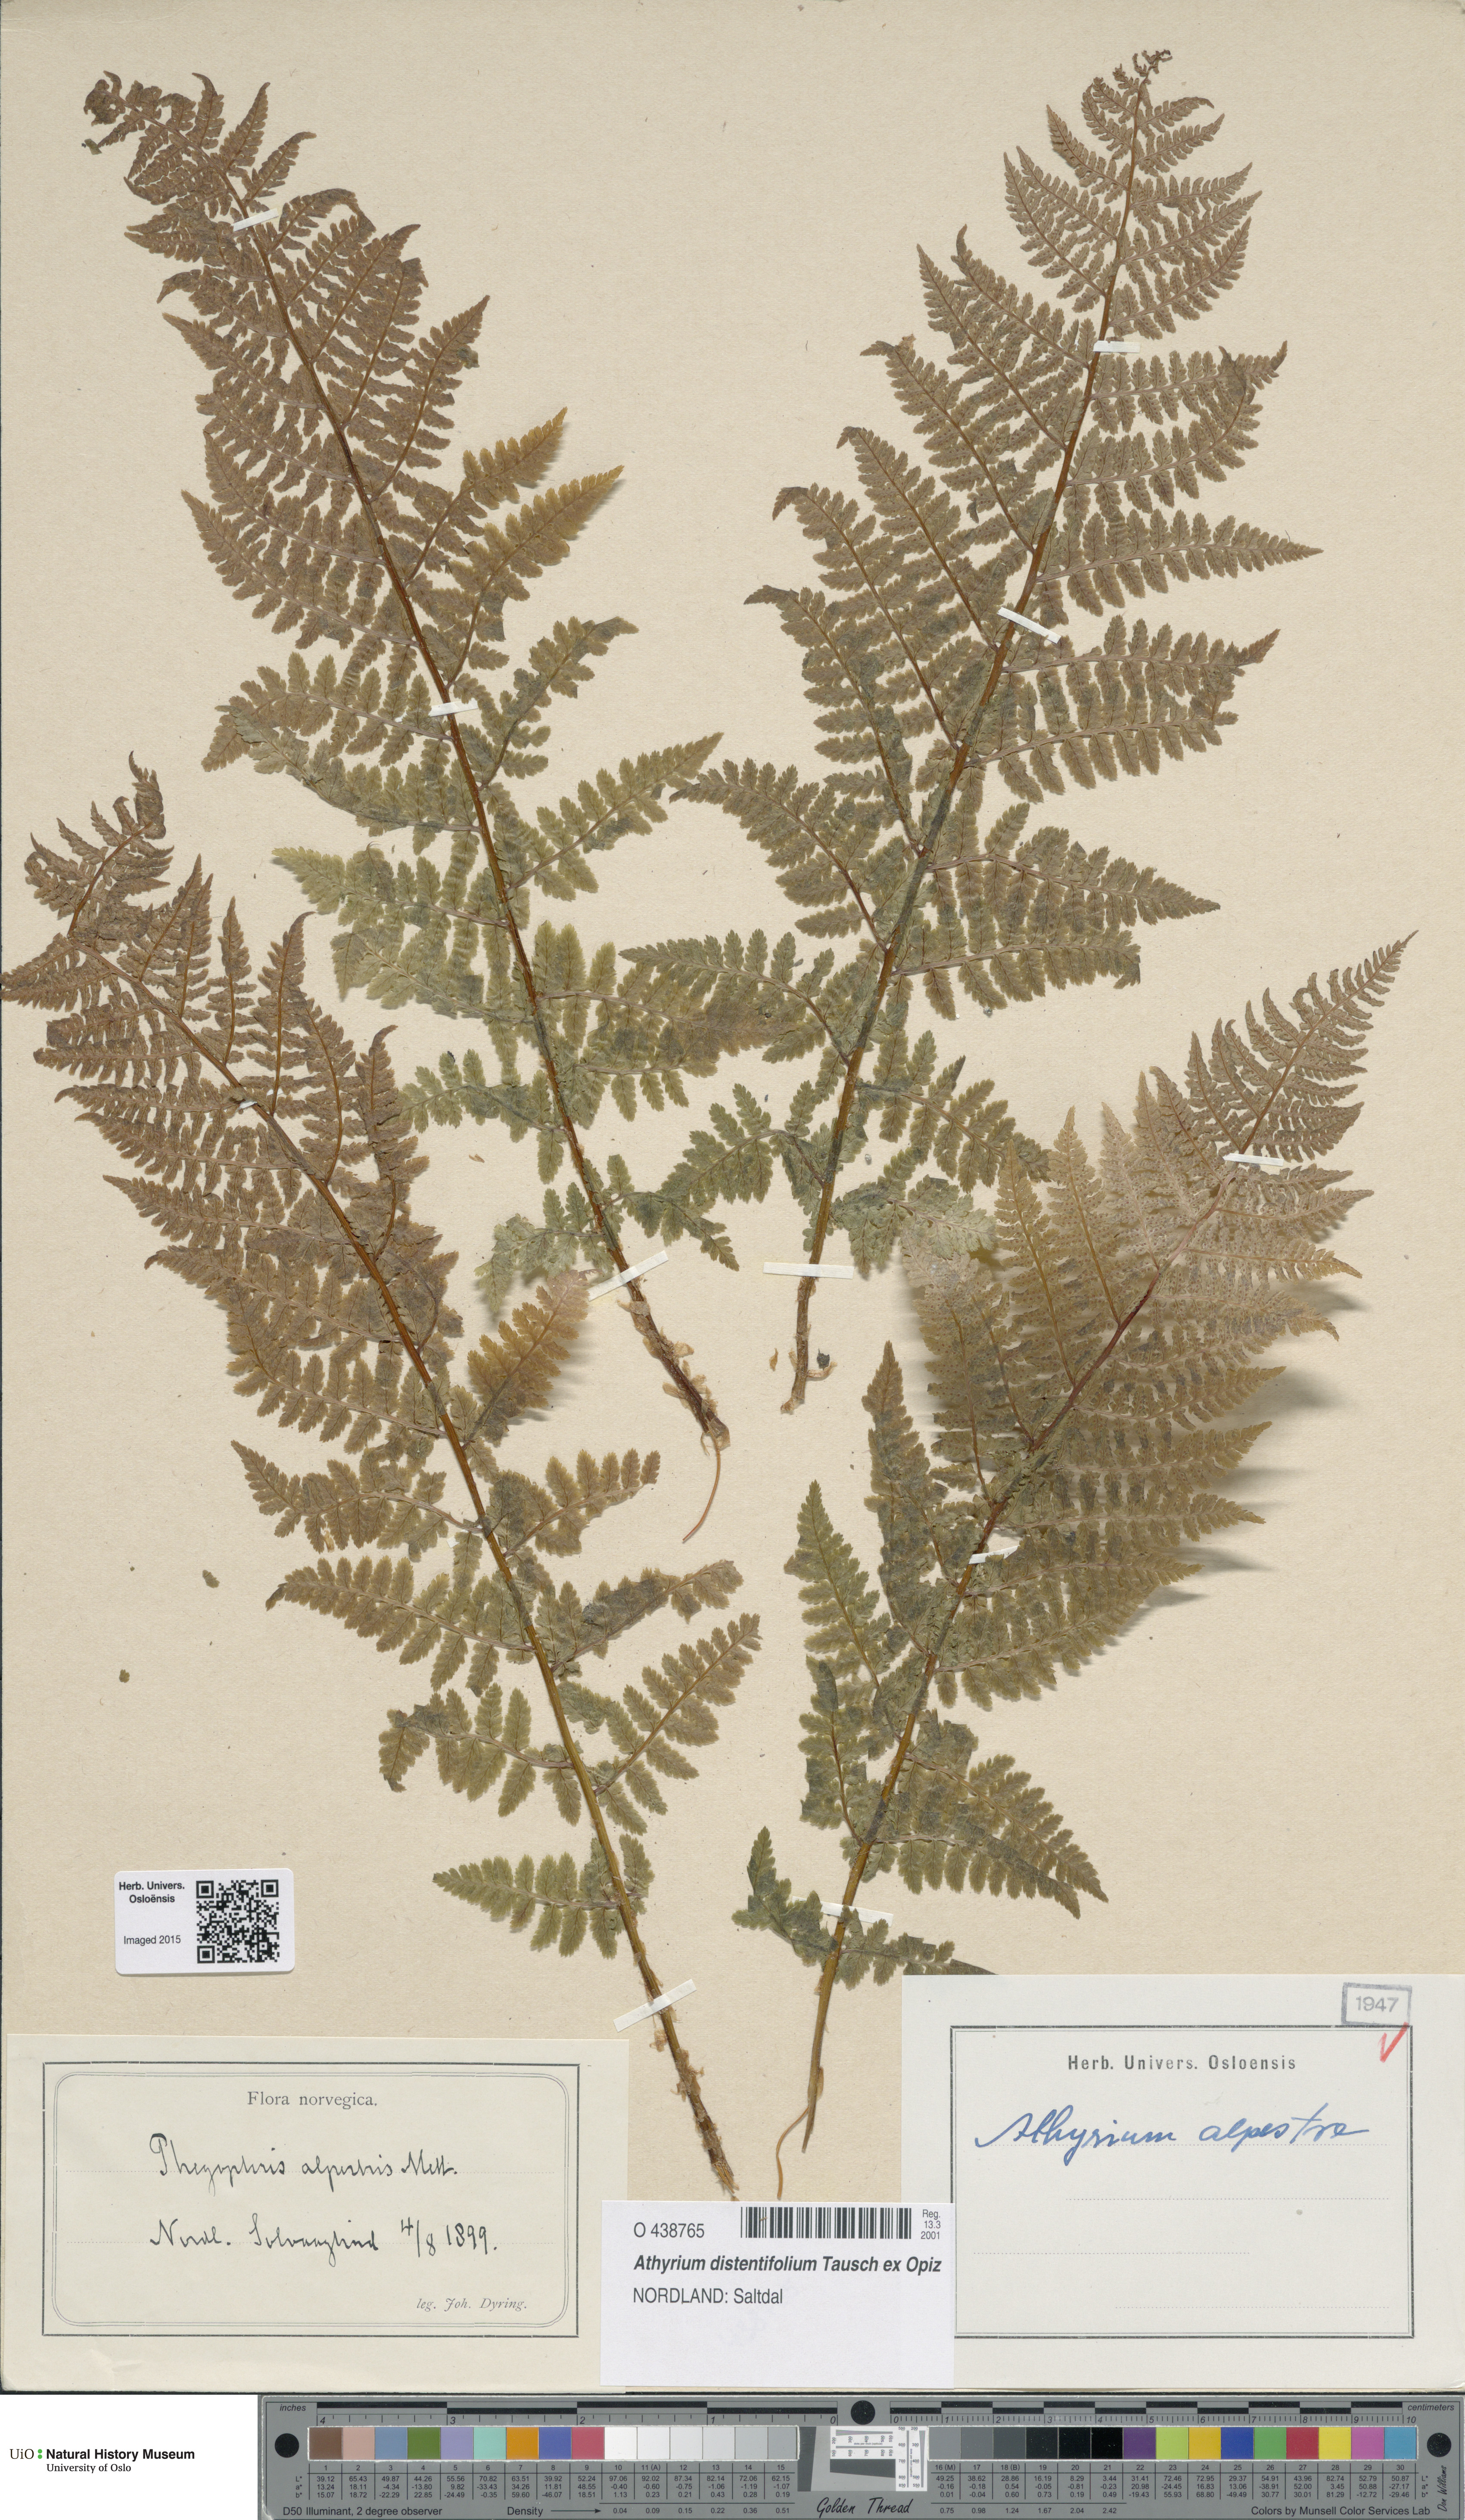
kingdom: Plantae
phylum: Tracheophyta
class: Polypodiopsida
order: Polypodiales
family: Athyriaceae
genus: Pseudathyrium
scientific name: Pseudathyrium alpestre
